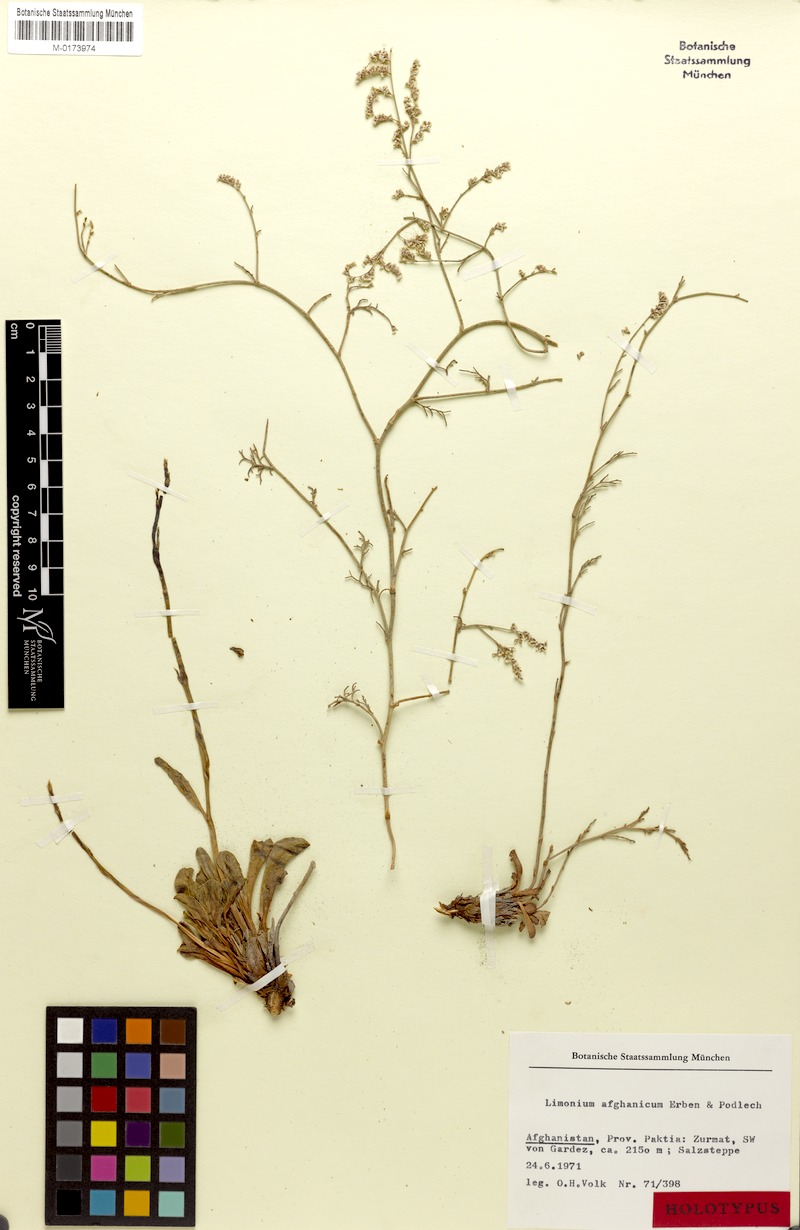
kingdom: Plantae
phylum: Tracheophyta
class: Magnoliopsida
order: Caryophyllales
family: Plumbaginaceae
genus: Limonium
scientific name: Limonium afghanicum
